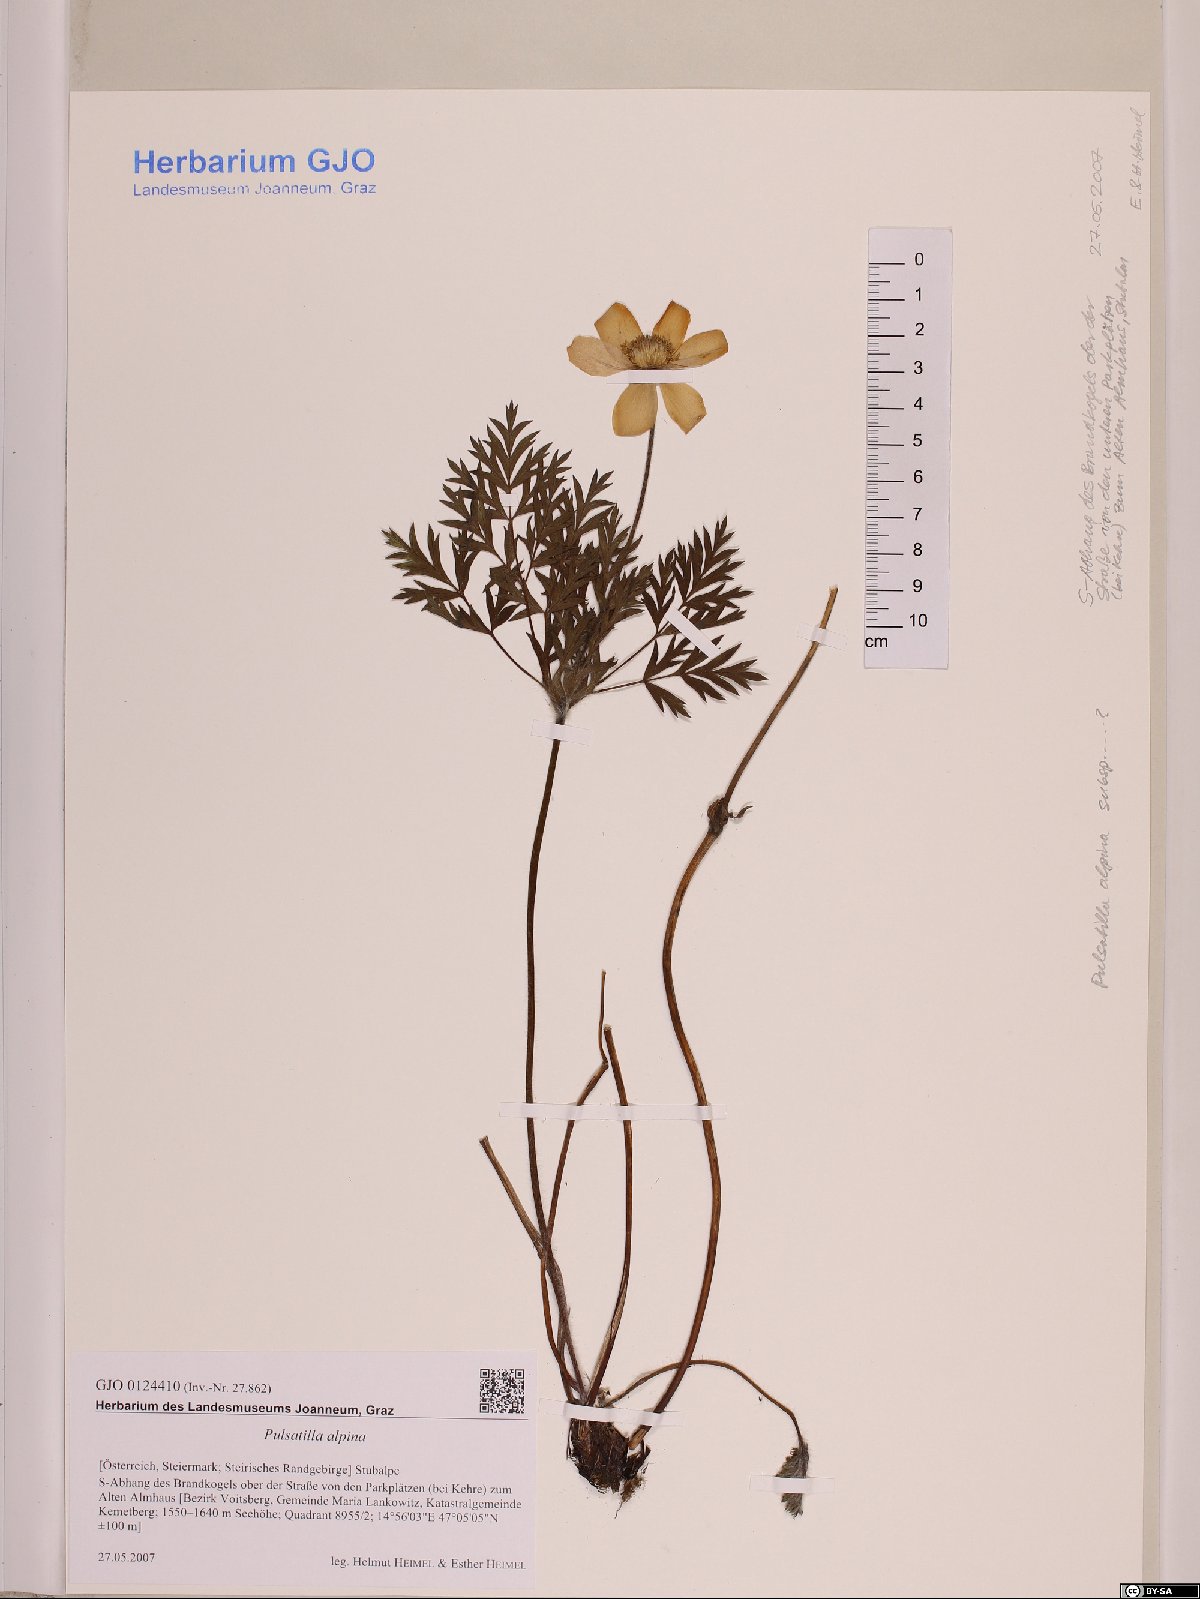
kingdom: Plantae
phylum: Tracheophyta
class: Magnoliopsida
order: Ranunculales
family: Ranunculaceae
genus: Pulsatilla
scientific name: Pulsatilla alpina
